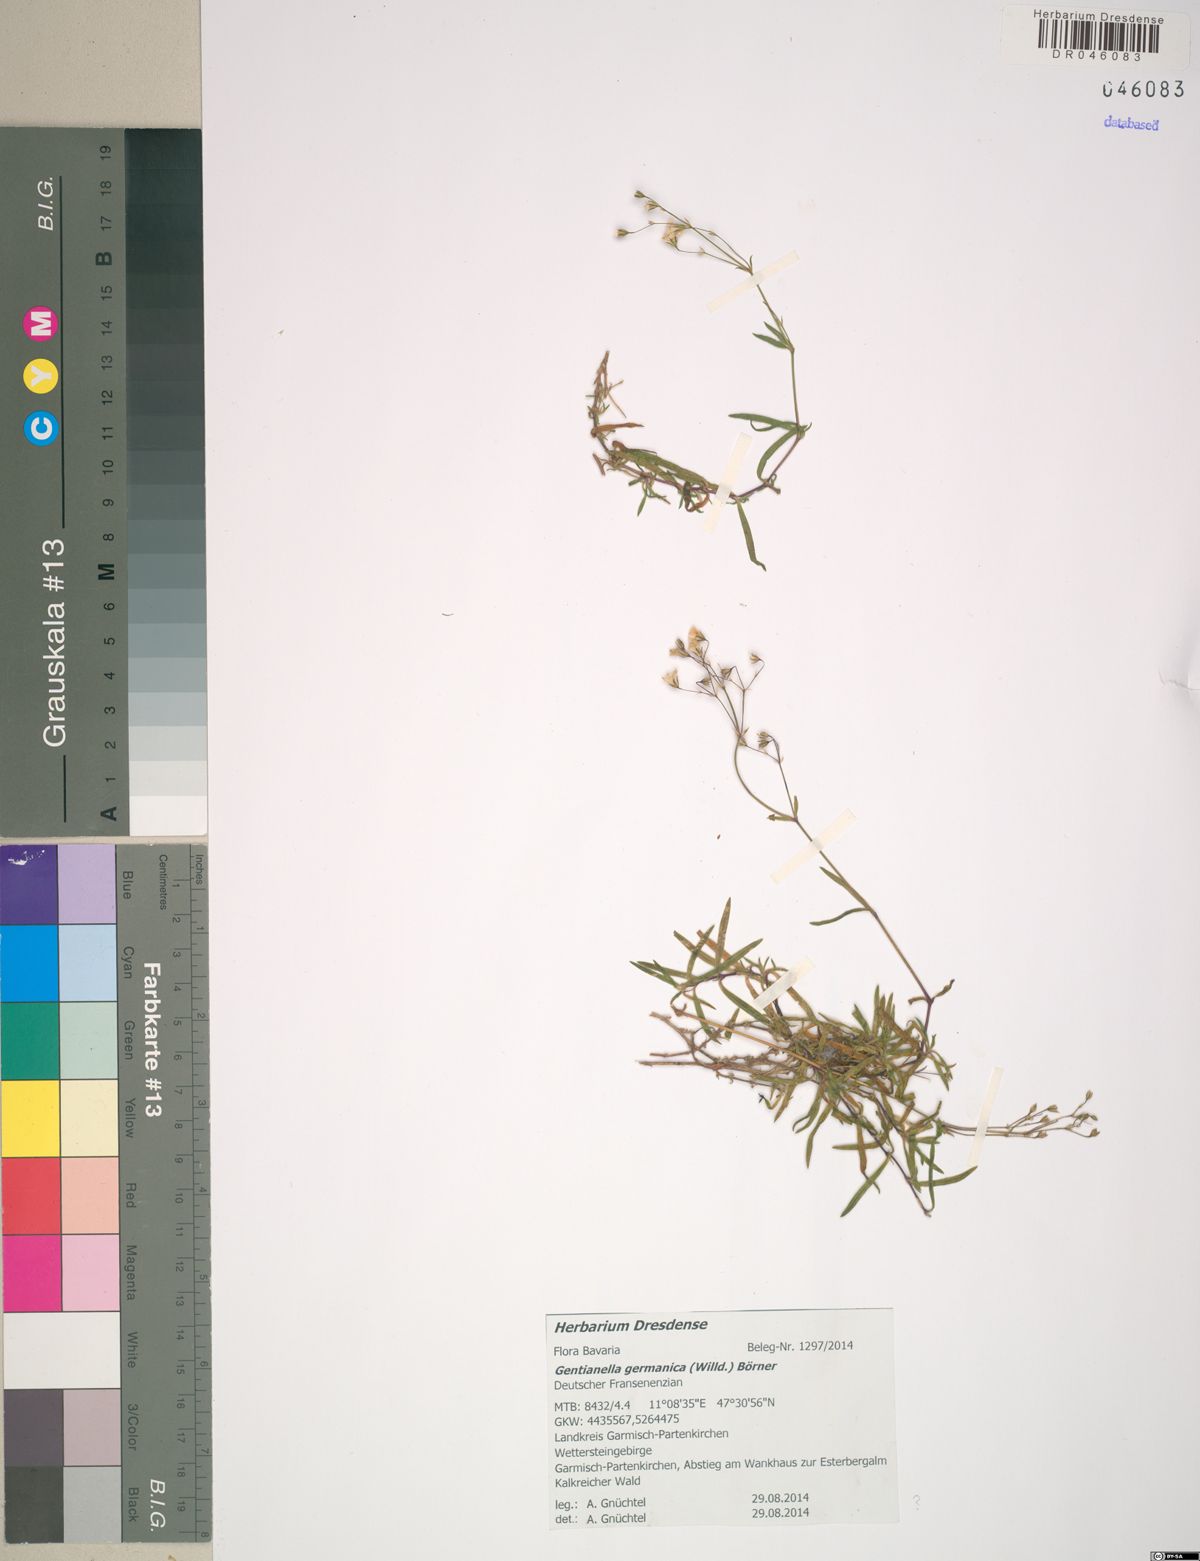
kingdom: Plantae
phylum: Tracheophyta
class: Magnoliopsida
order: Gentianales
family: Gentianaceae
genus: Gentianella
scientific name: Gentianella germanica
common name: Chiltern-gentian
